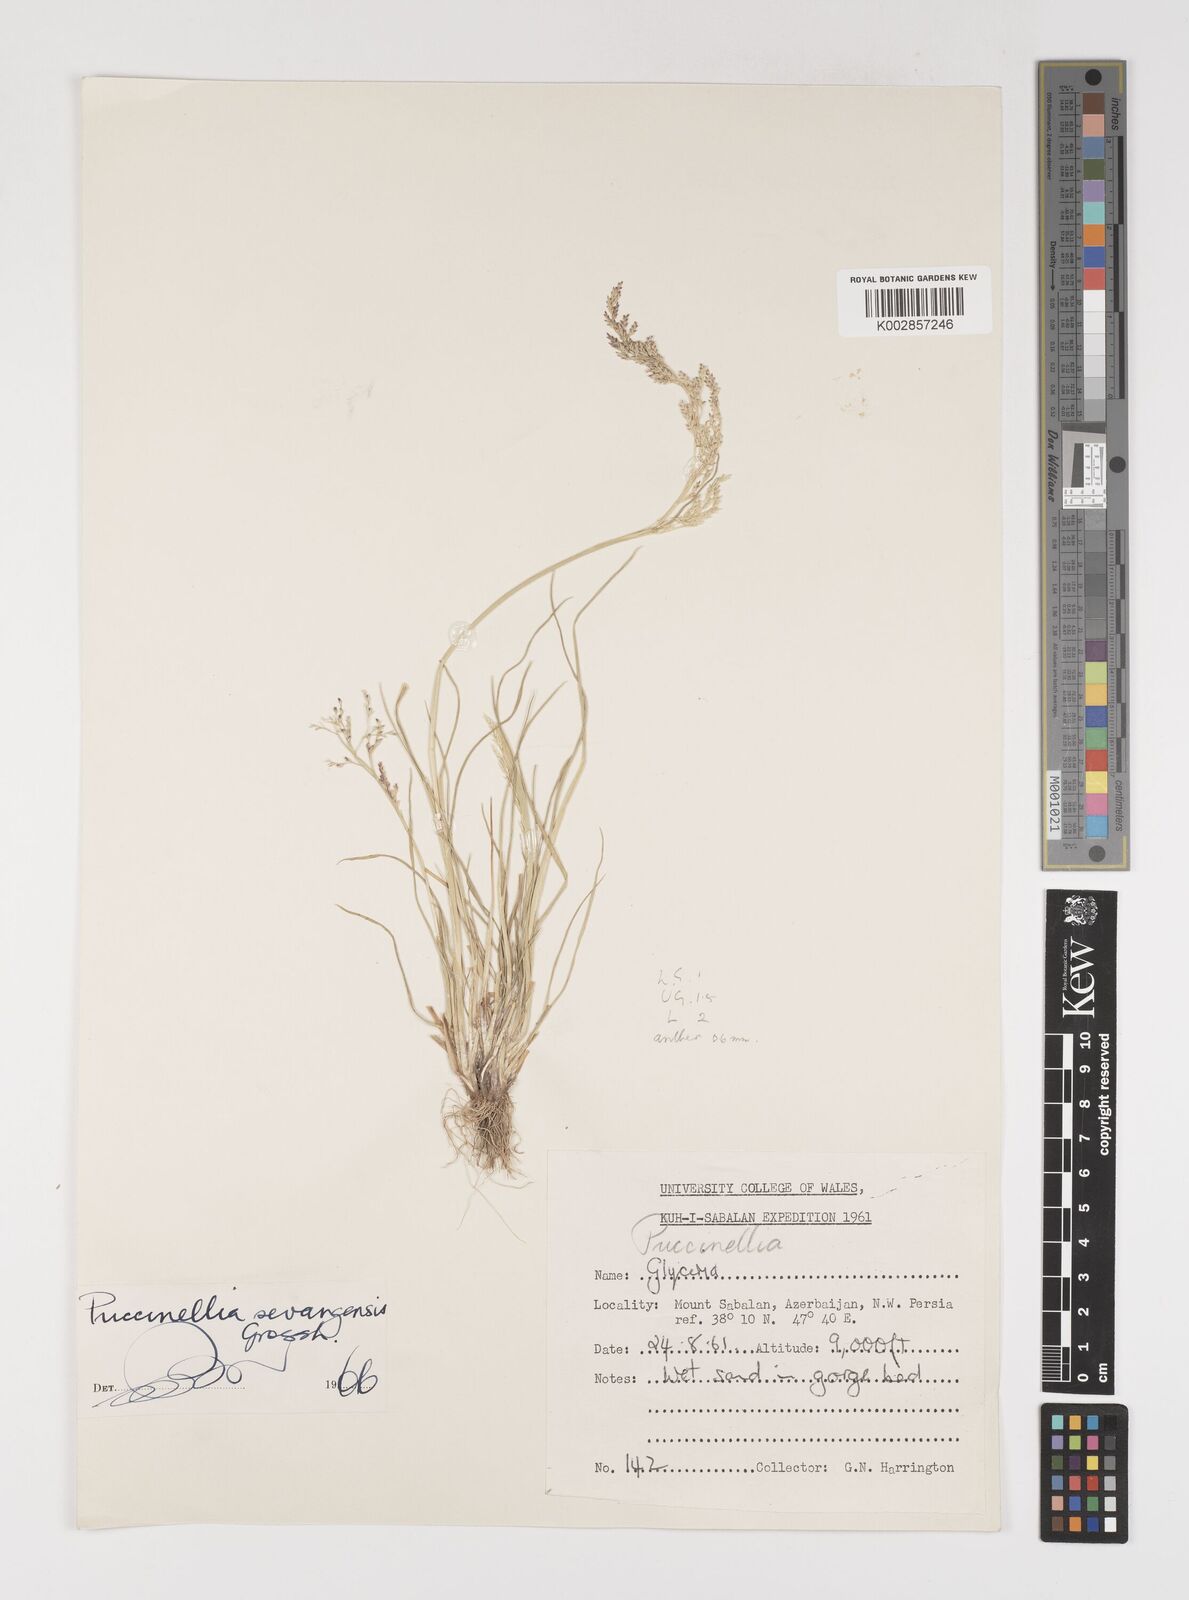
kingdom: Plantae
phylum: Tracheophyta
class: Liliopsida
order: Poales
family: Poaceae
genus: Puccinellia
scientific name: Puccinellia distans
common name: Weeping alkaligrass
